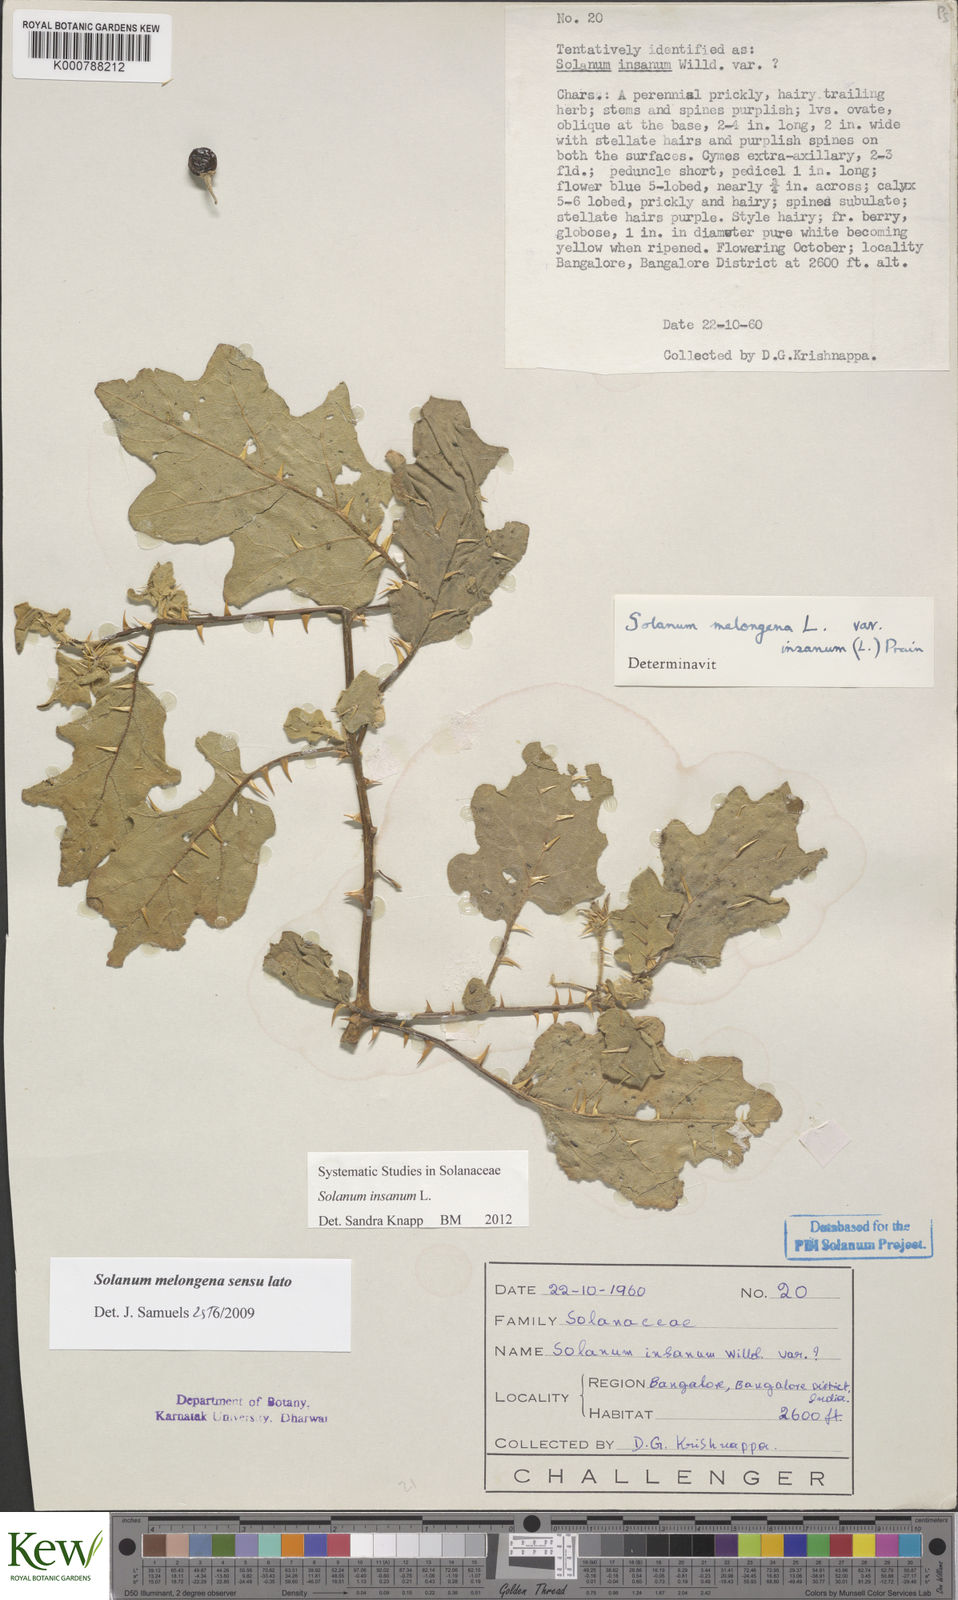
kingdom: Plantae
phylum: Tracheophyta
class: Magnoliopsida
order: Solanales
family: Solanaceae
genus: Solanum
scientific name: Solanum insanum
